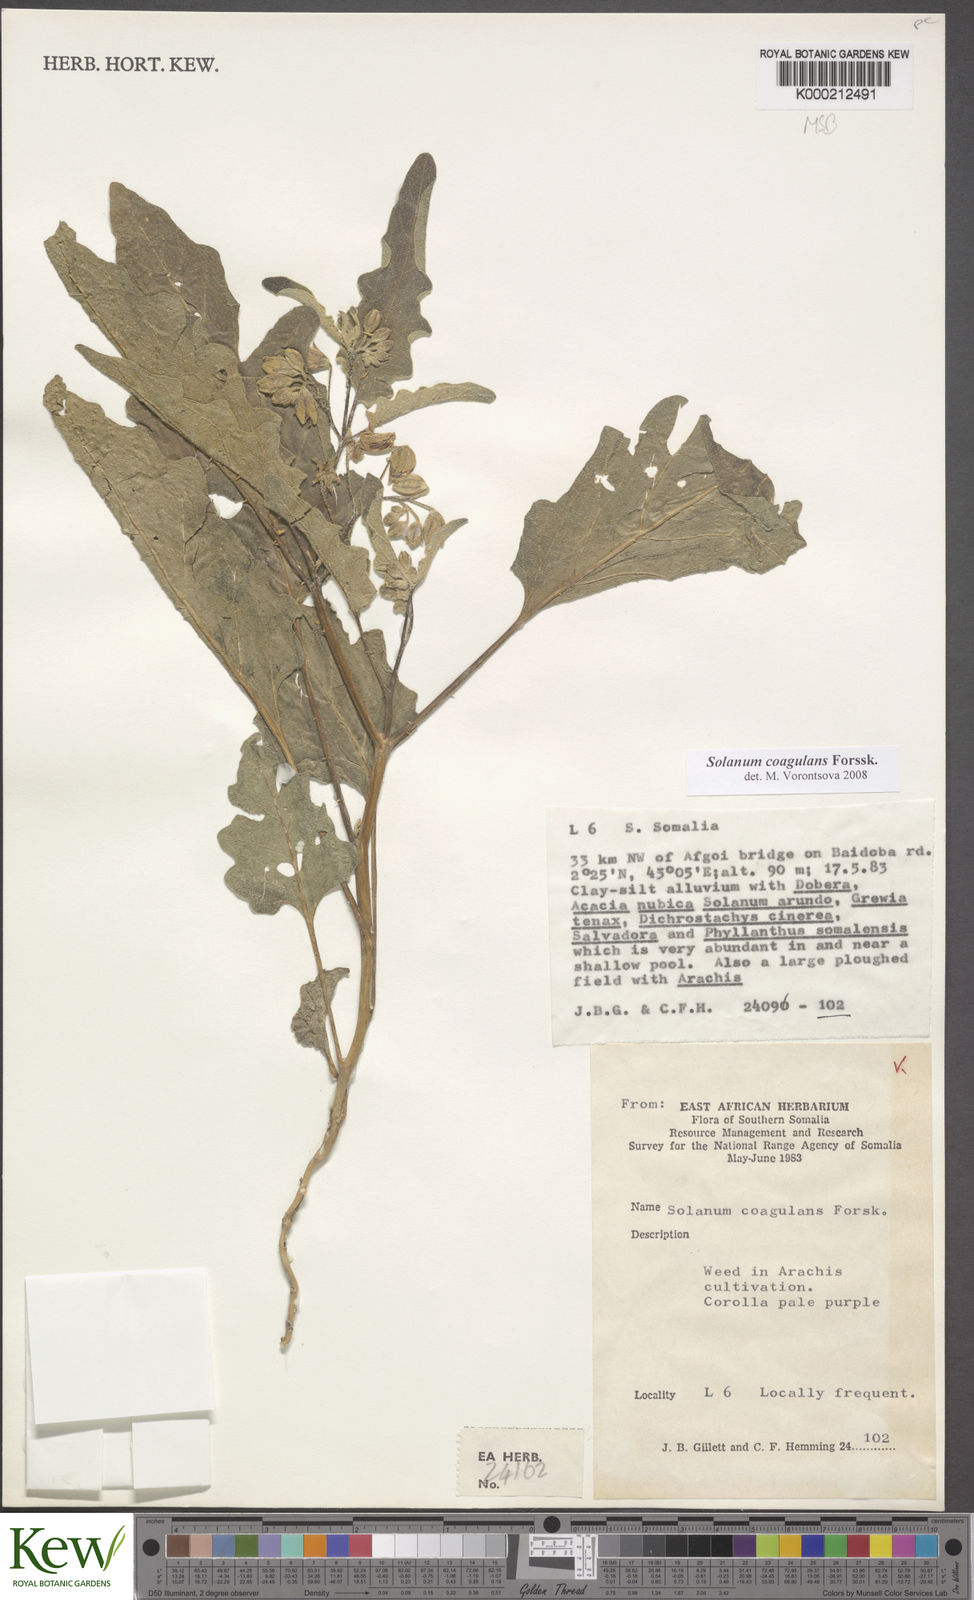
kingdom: Plantae
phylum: Tracheophyta
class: Magnoliopsida
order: Solanales
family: Solanaceae
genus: Solanum
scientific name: Solanum coagulans
